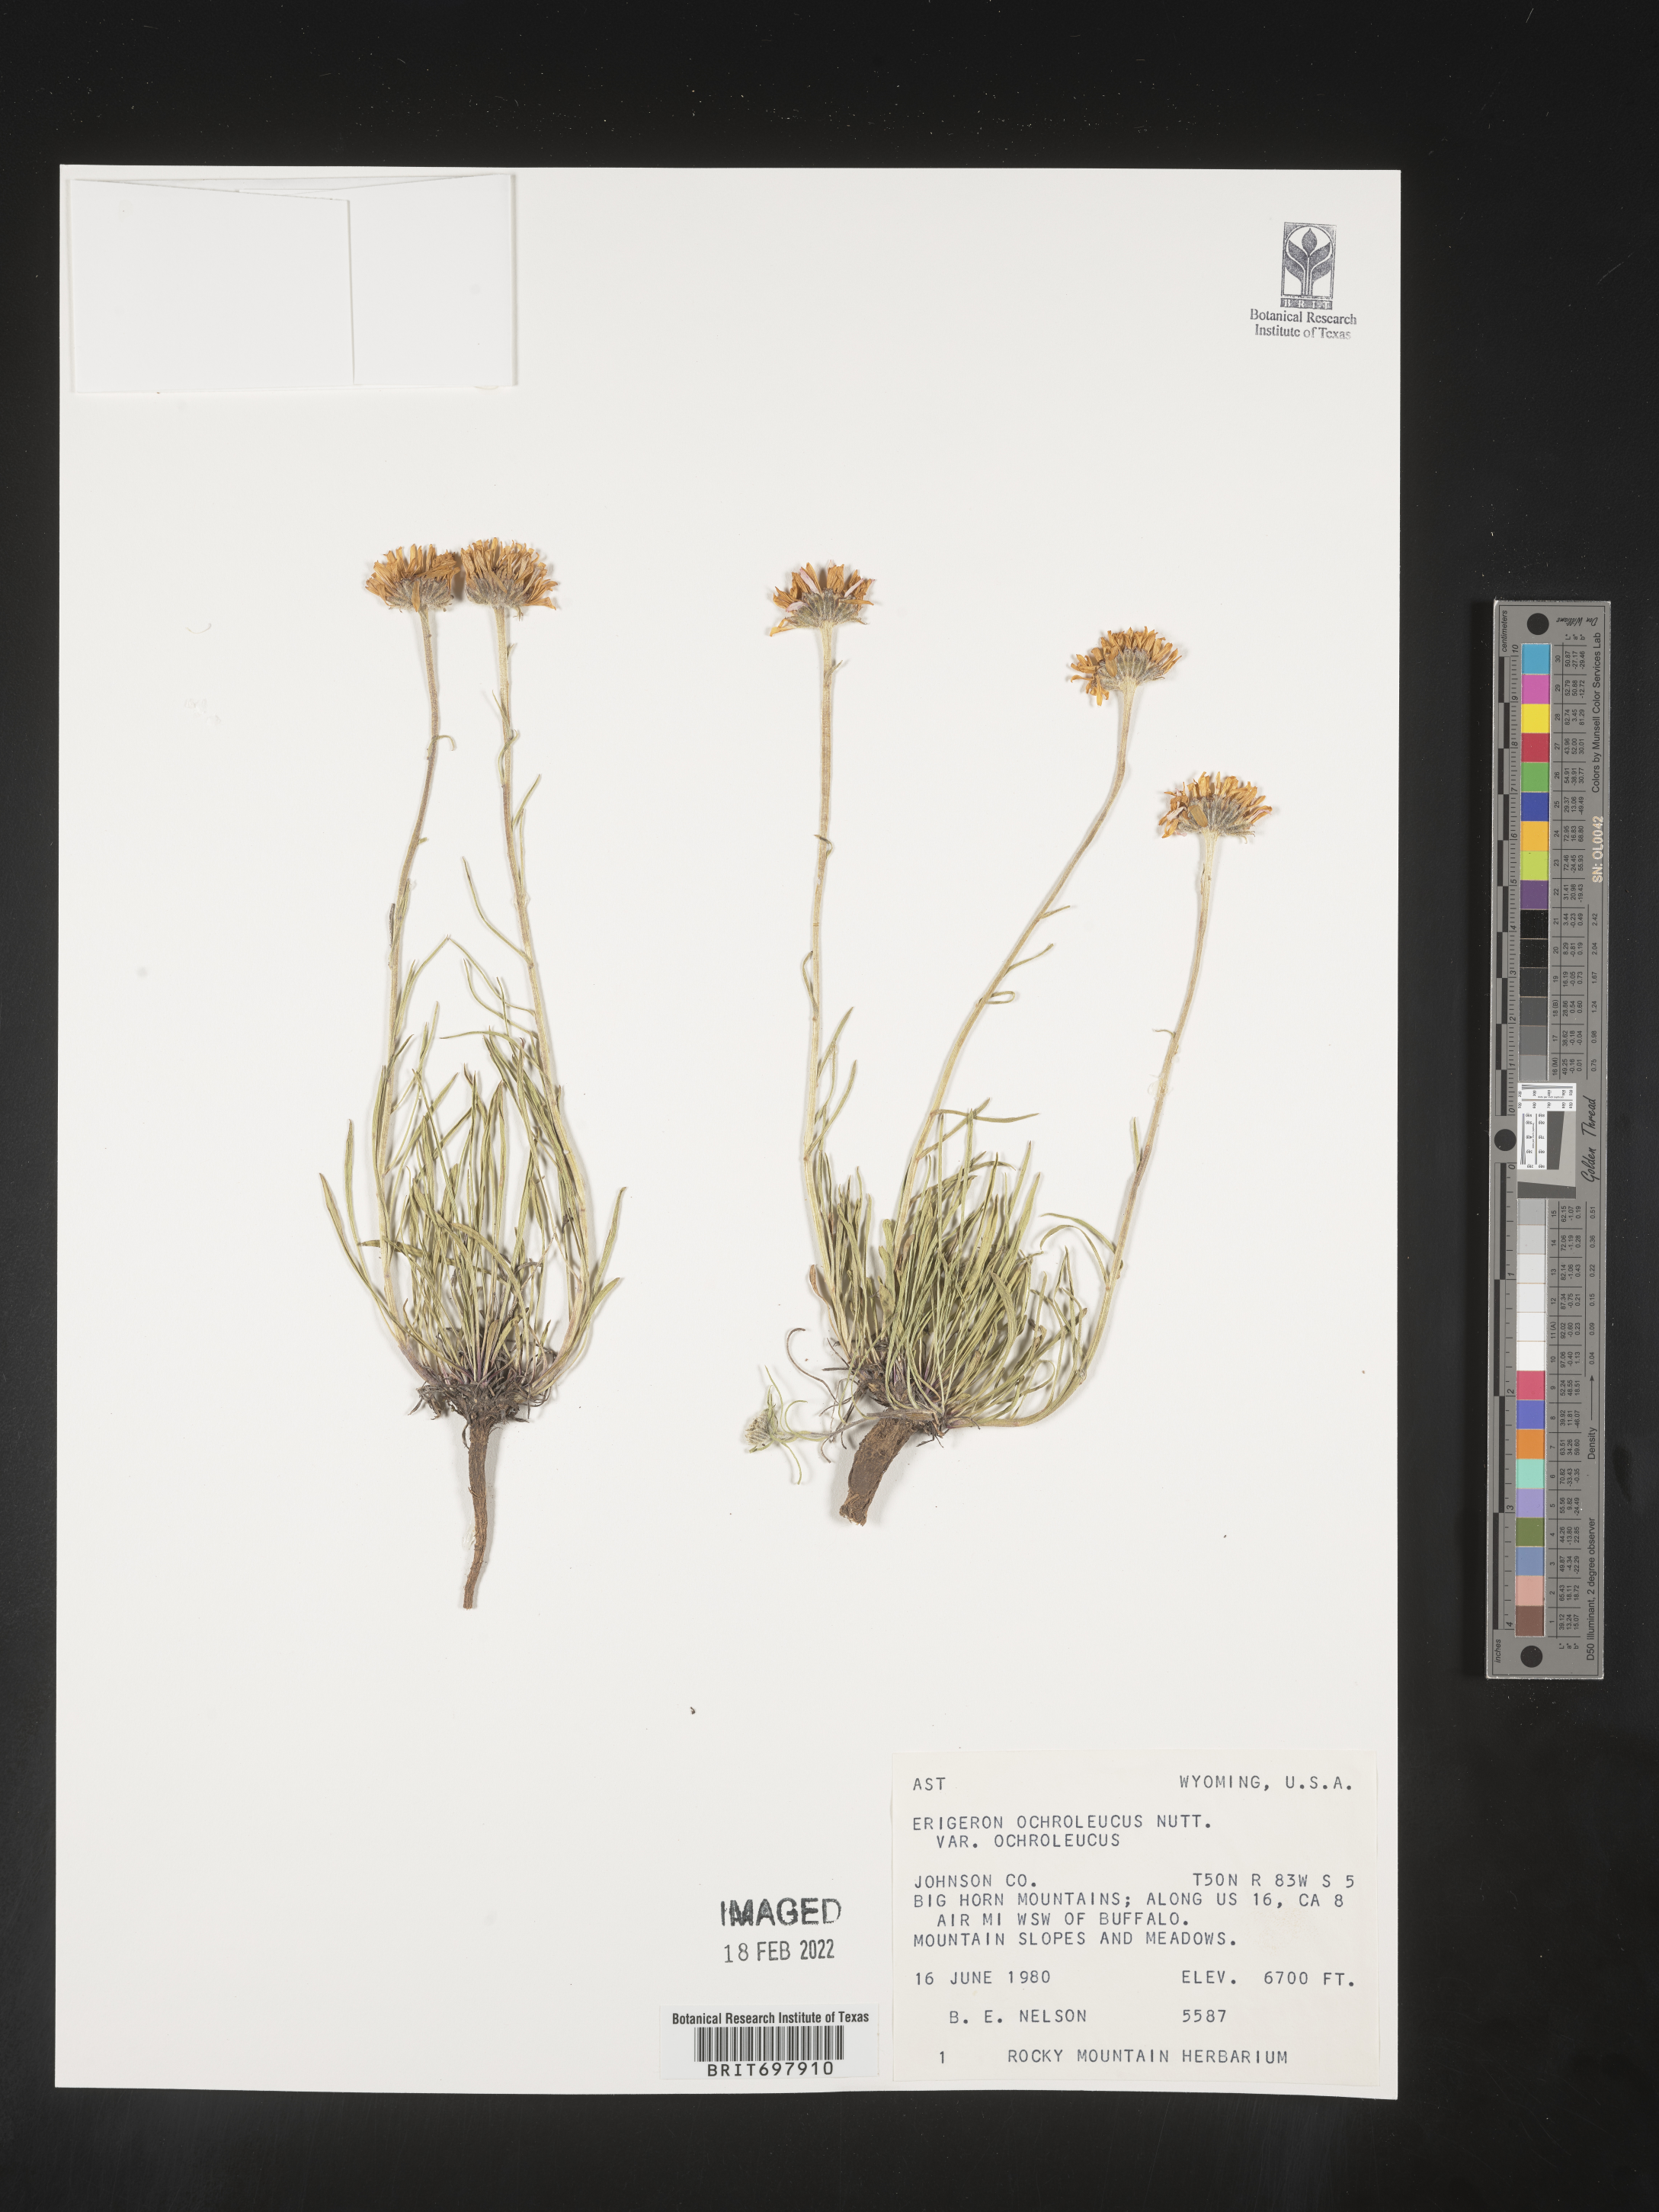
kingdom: Plantae
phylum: Tracheophyta
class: Magnoliopsida
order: Asterales
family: Asteraceae
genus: Erigeron
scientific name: Erigeron ochroleucus
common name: Buff fleabane
